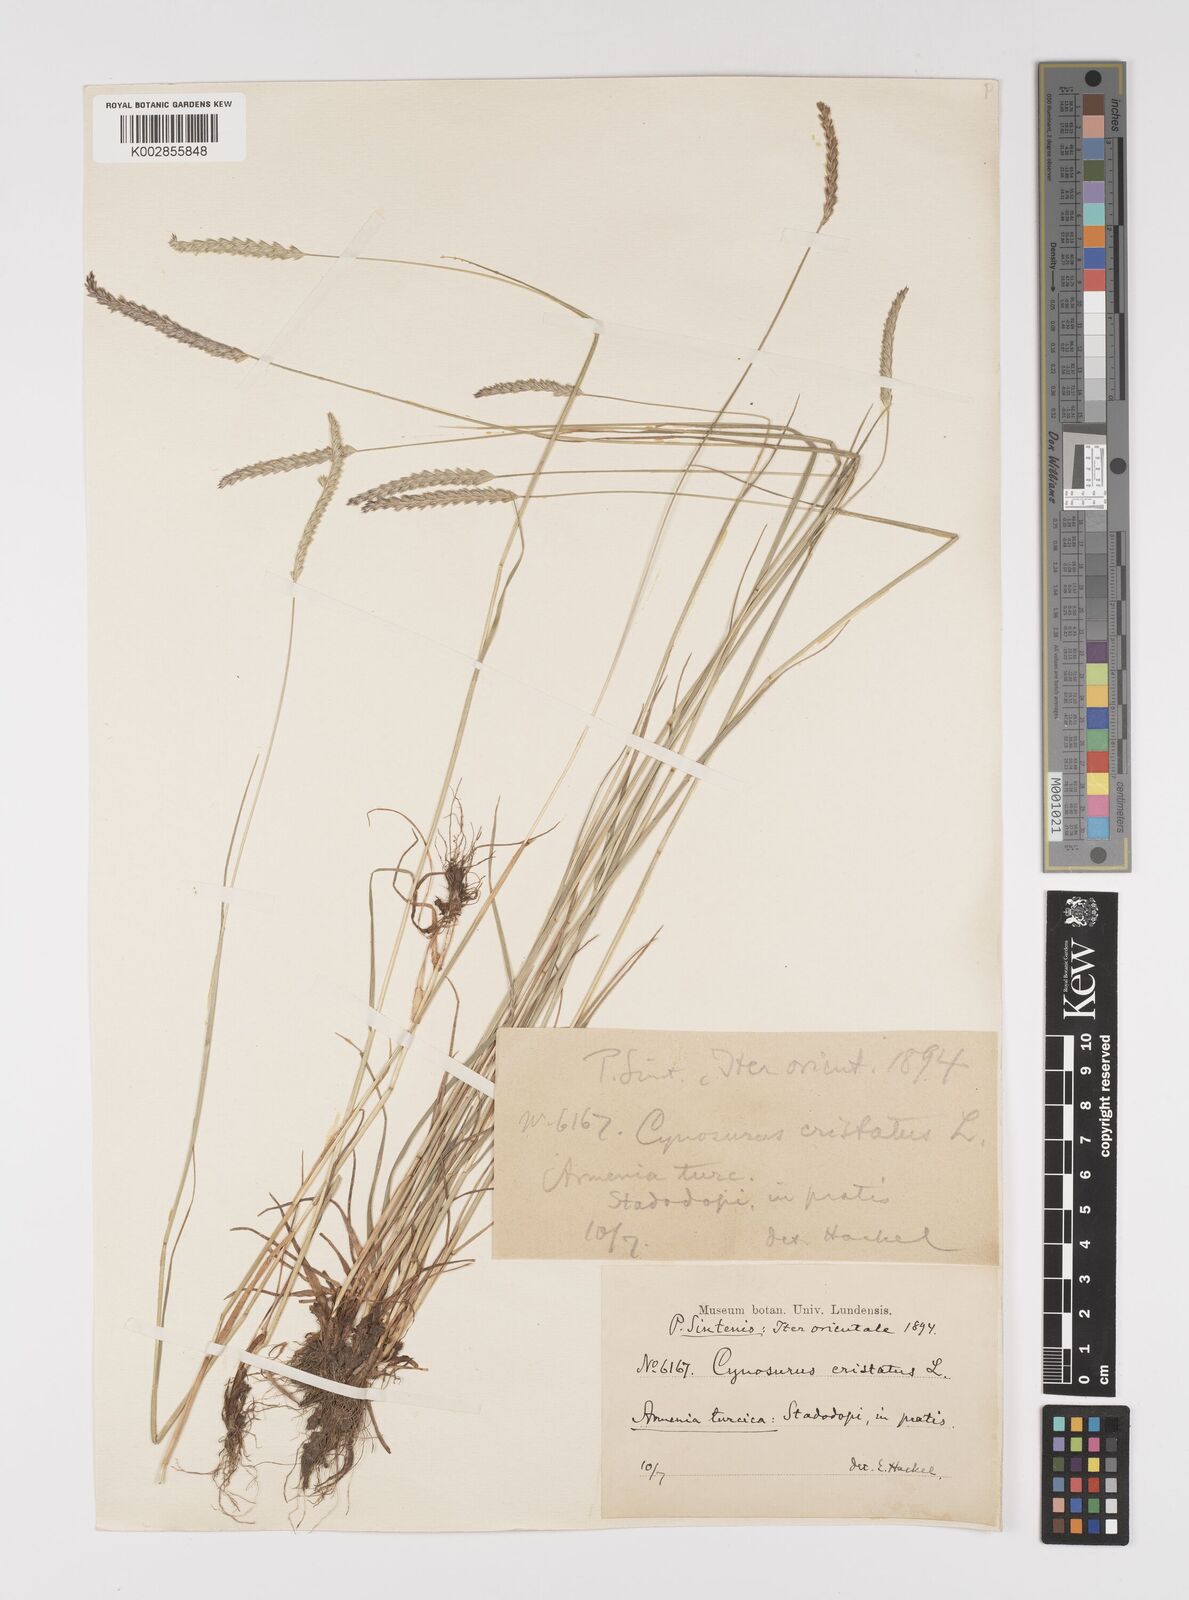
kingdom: Plantae
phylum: Tracheophyta
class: Liliopsida
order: Poales
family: Poaceae
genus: Cynosurus
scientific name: Cynosurus cristatus
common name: Crested dog's-tail
